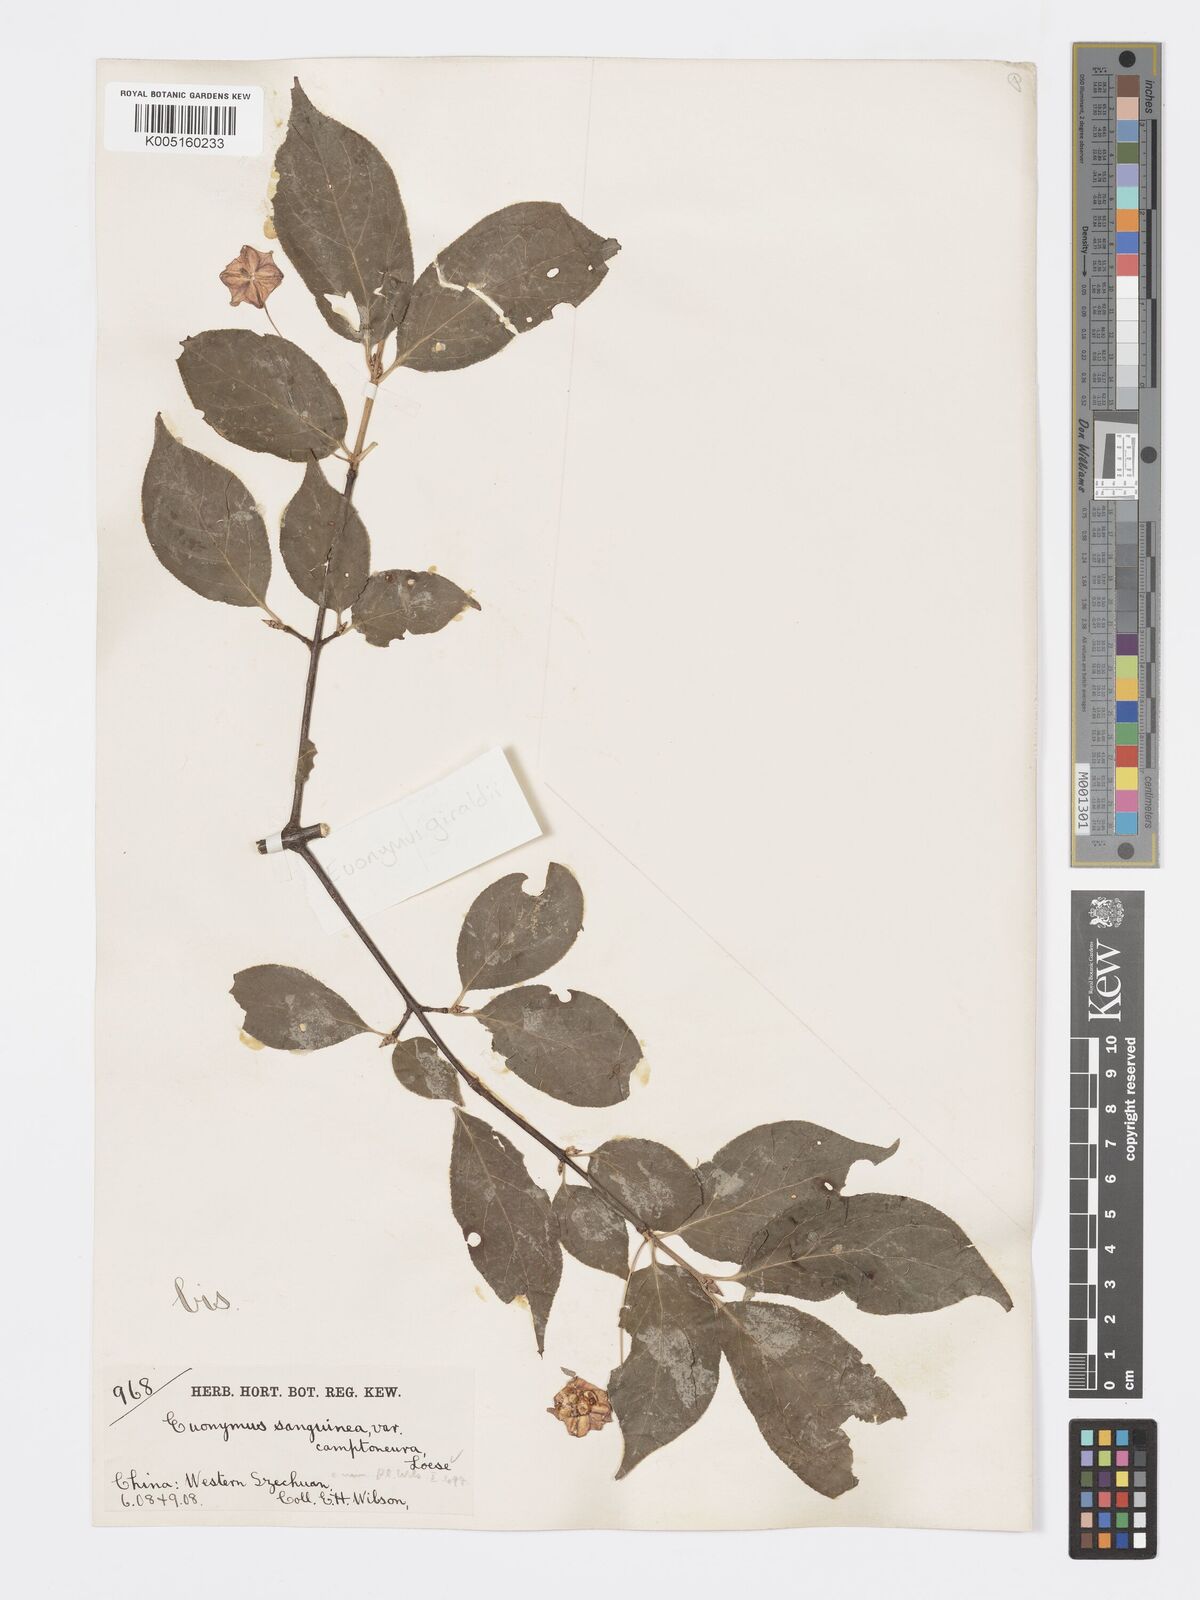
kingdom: Plantae
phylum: Tracheophyta
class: Magnoliopsida
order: Celastrales
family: Celastraceae
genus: Euonymus
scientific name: Euonymus giraldii
